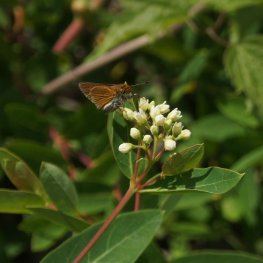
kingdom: Animalia
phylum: Arthropoda
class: Insecta
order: Lepidoptera
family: Hesperiidae
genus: Euphyes
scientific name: Euphyes bimacula
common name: Two-spotted Skipper
